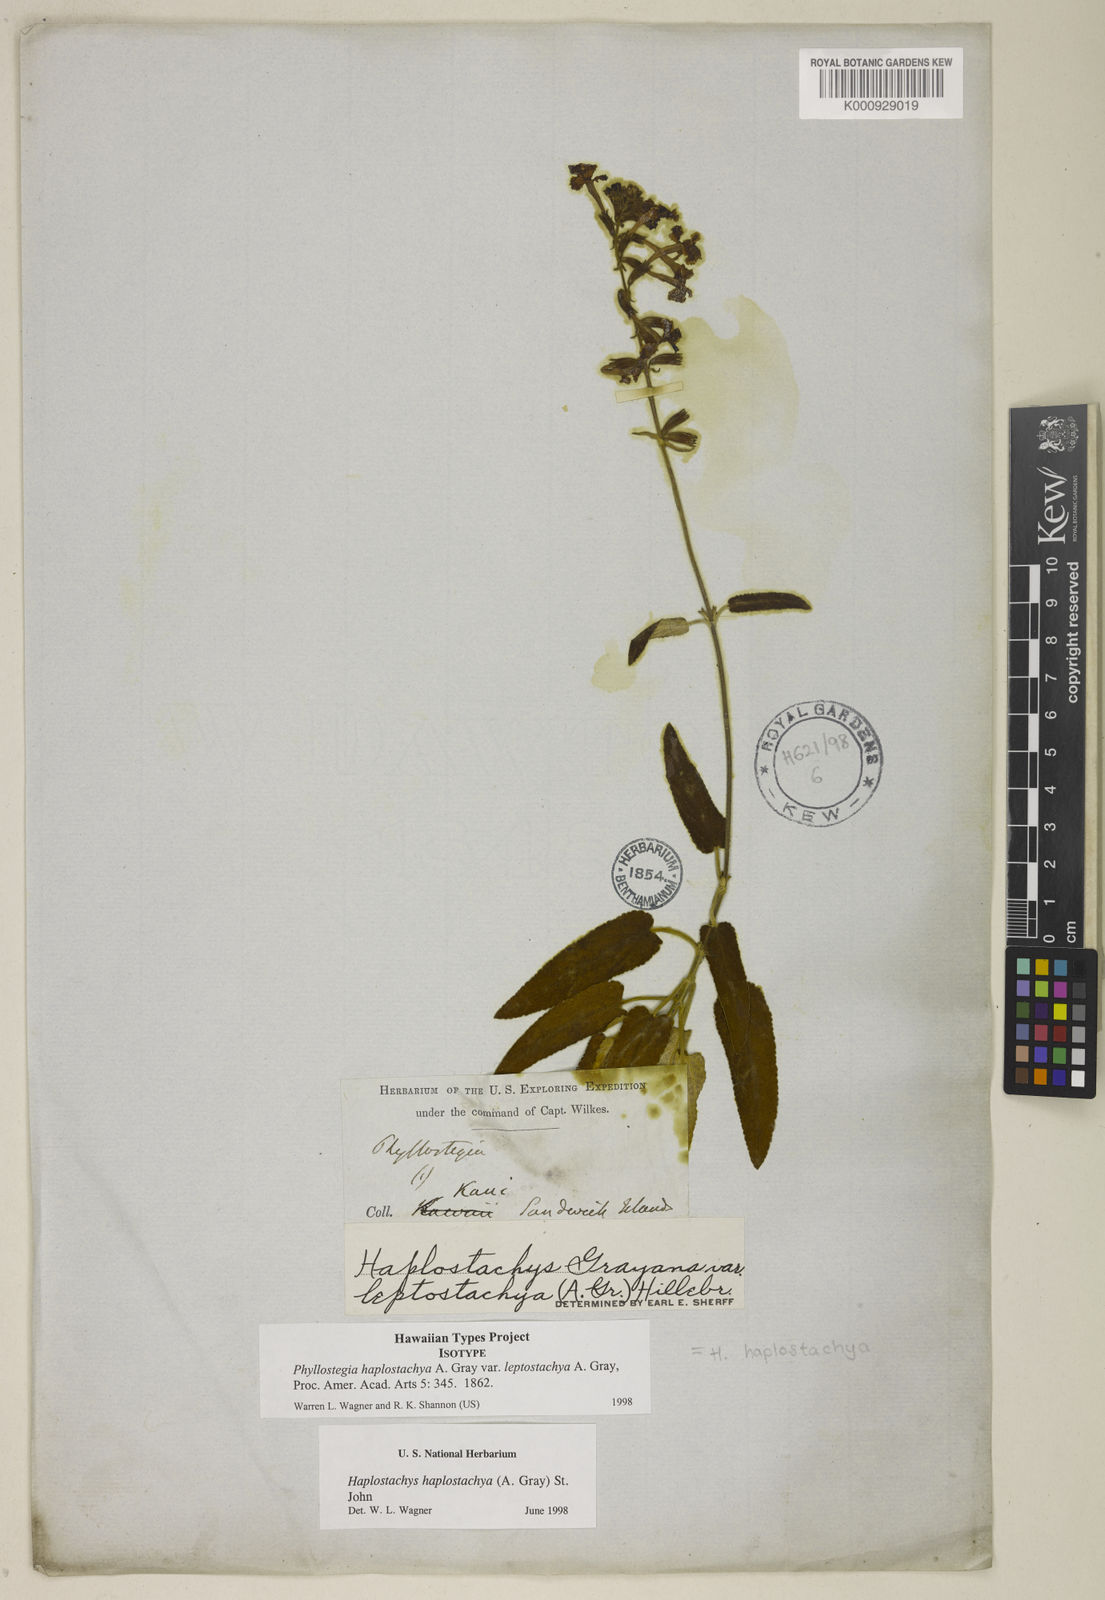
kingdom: Plantae
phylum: Tracheophyta
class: Magnoliopsida
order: Lamiales
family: Lamiaceae
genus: Haplostachys
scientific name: Haplostachys haplostachya
